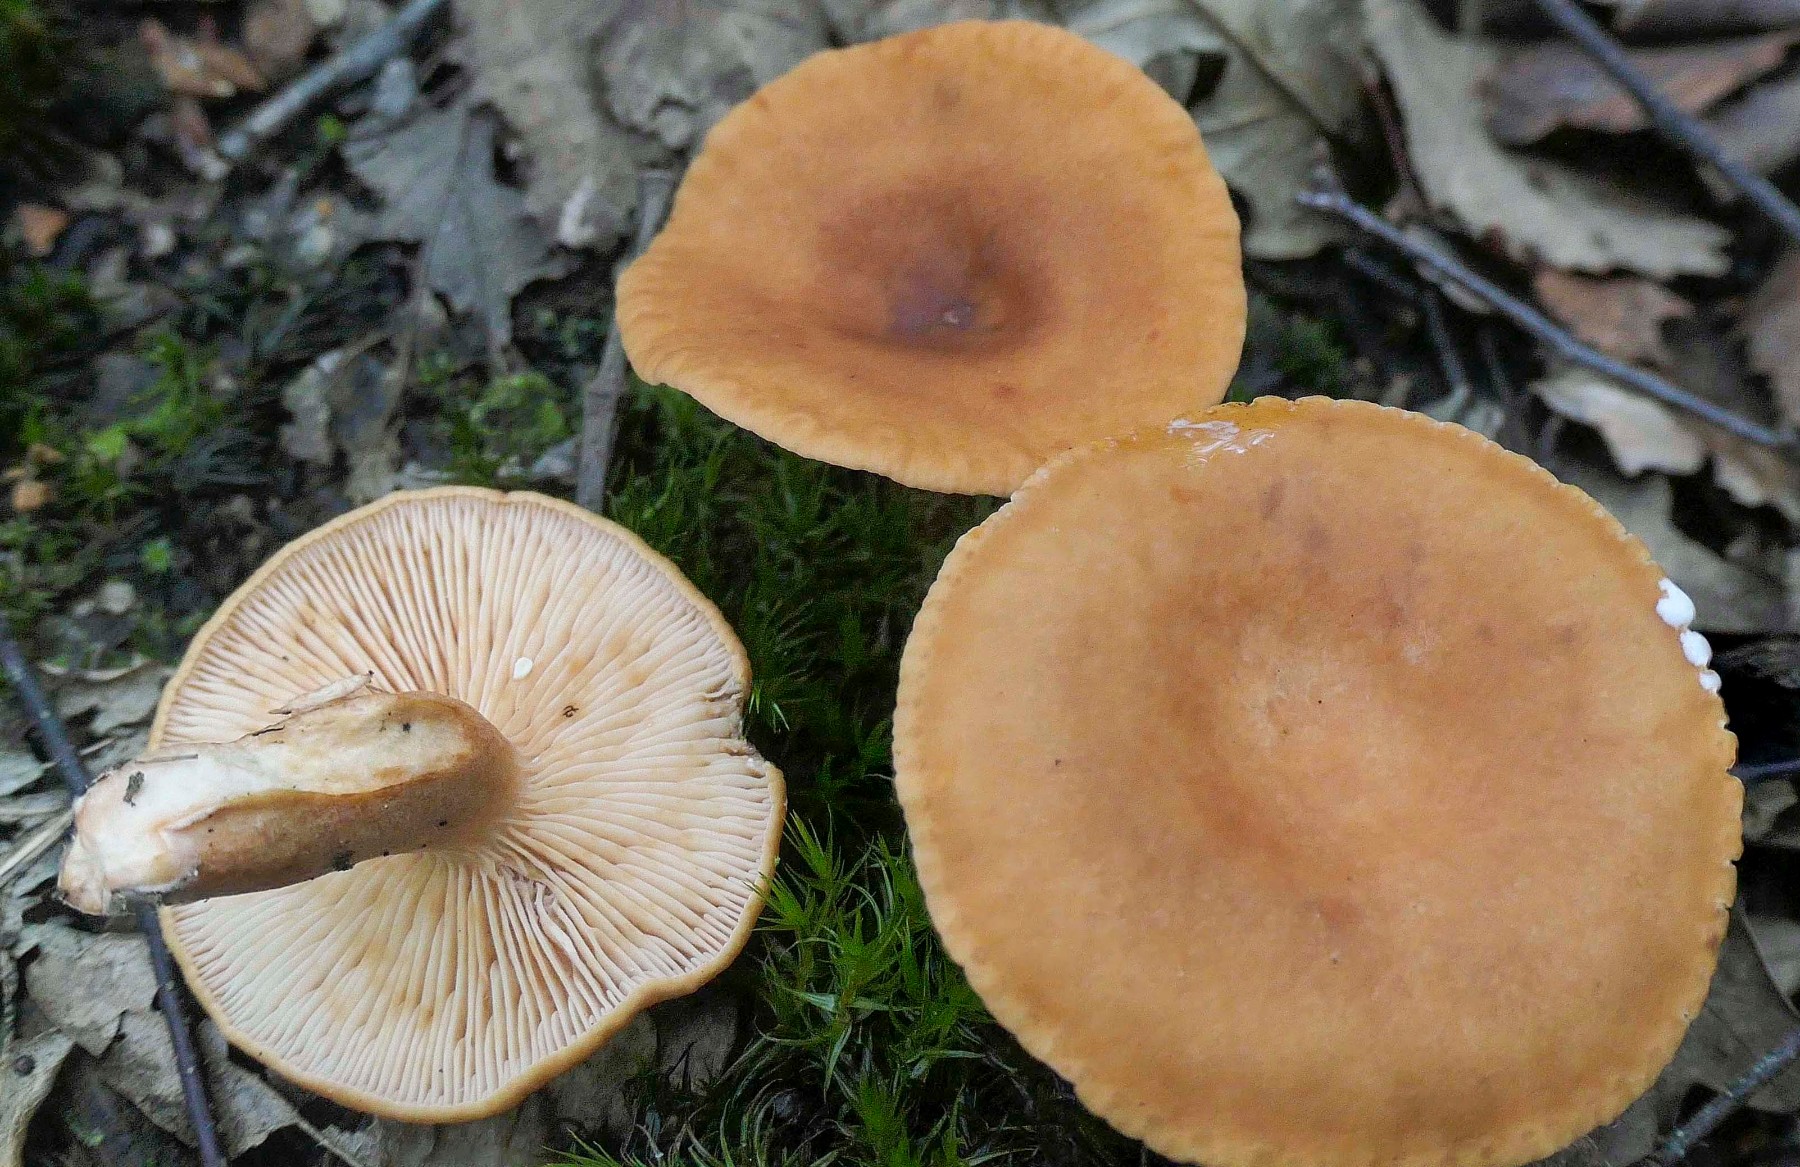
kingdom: Fungi
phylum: Basidiomycota
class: Agaricomycetes
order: Russulales
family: Russulaceae
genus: Lactarius
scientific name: Lactarius aurantiacus
